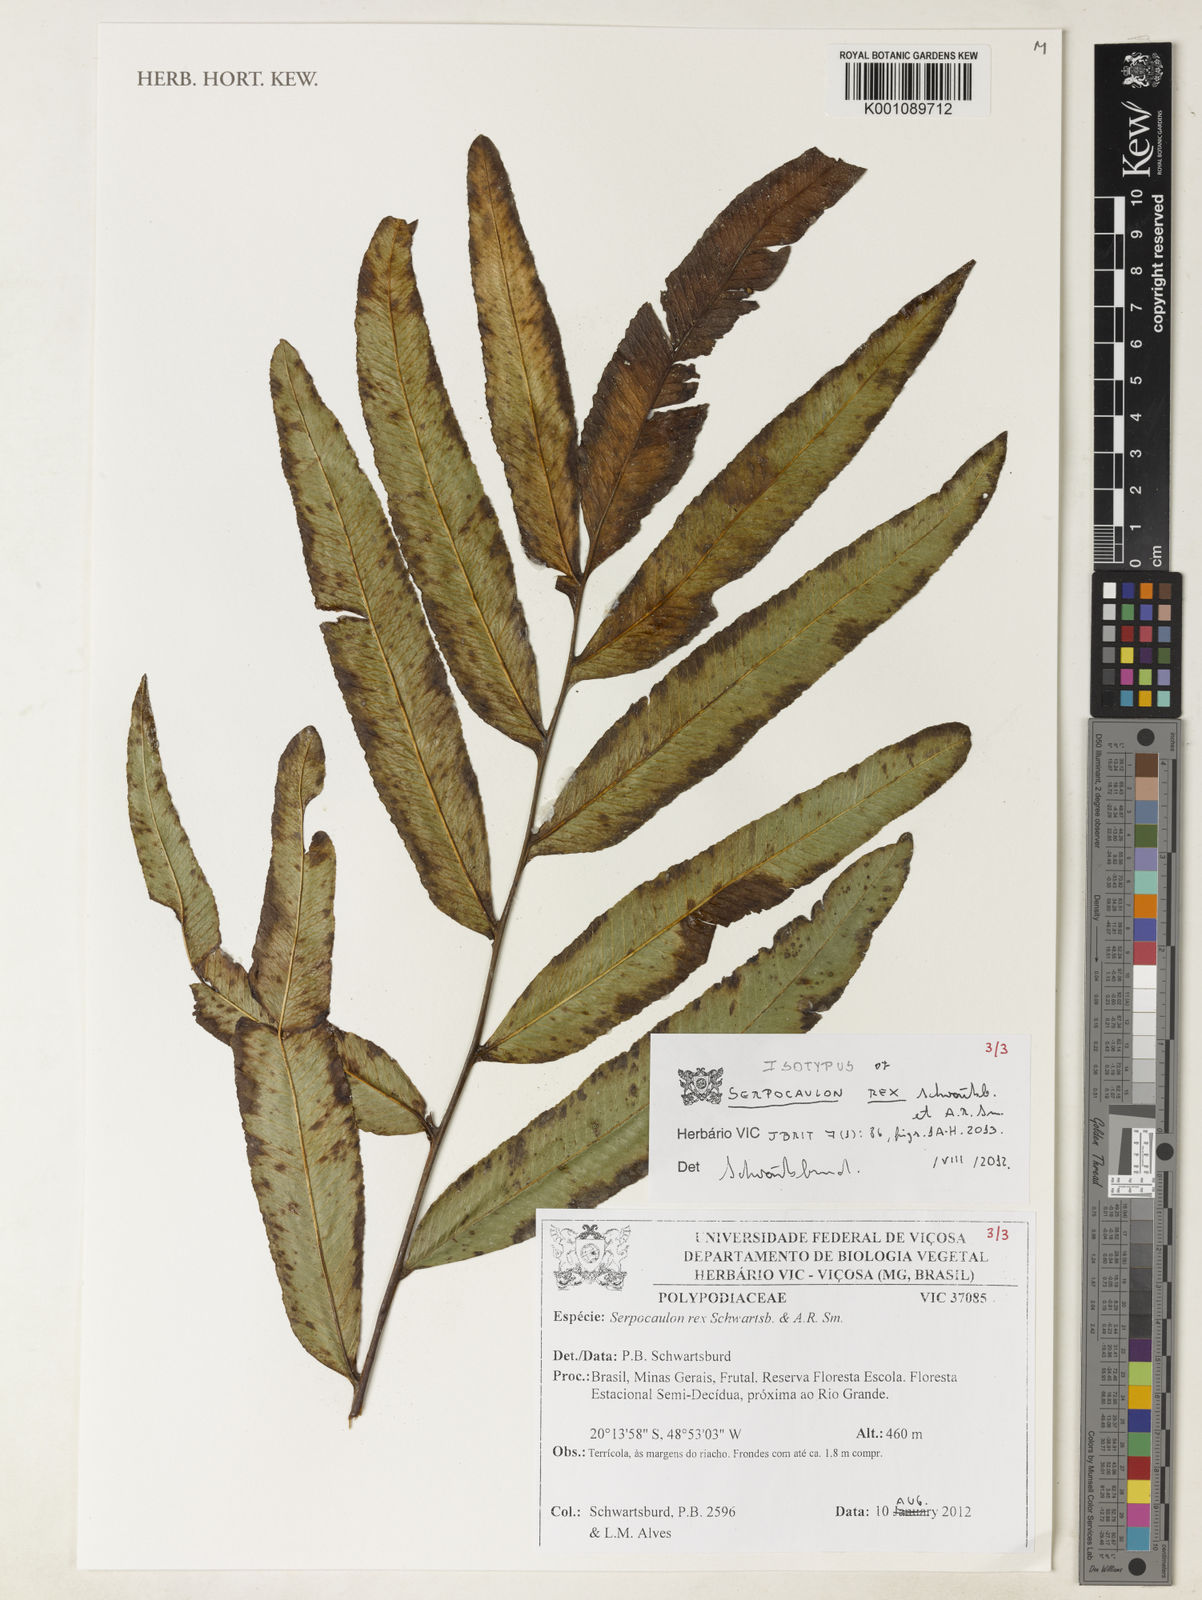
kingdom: Plantae
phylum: Tracheophyta
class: Polypodiopsida
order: Polypodiales
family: Polypodiaceae
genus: Serpocaulon
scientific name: Serpocaulon rex
